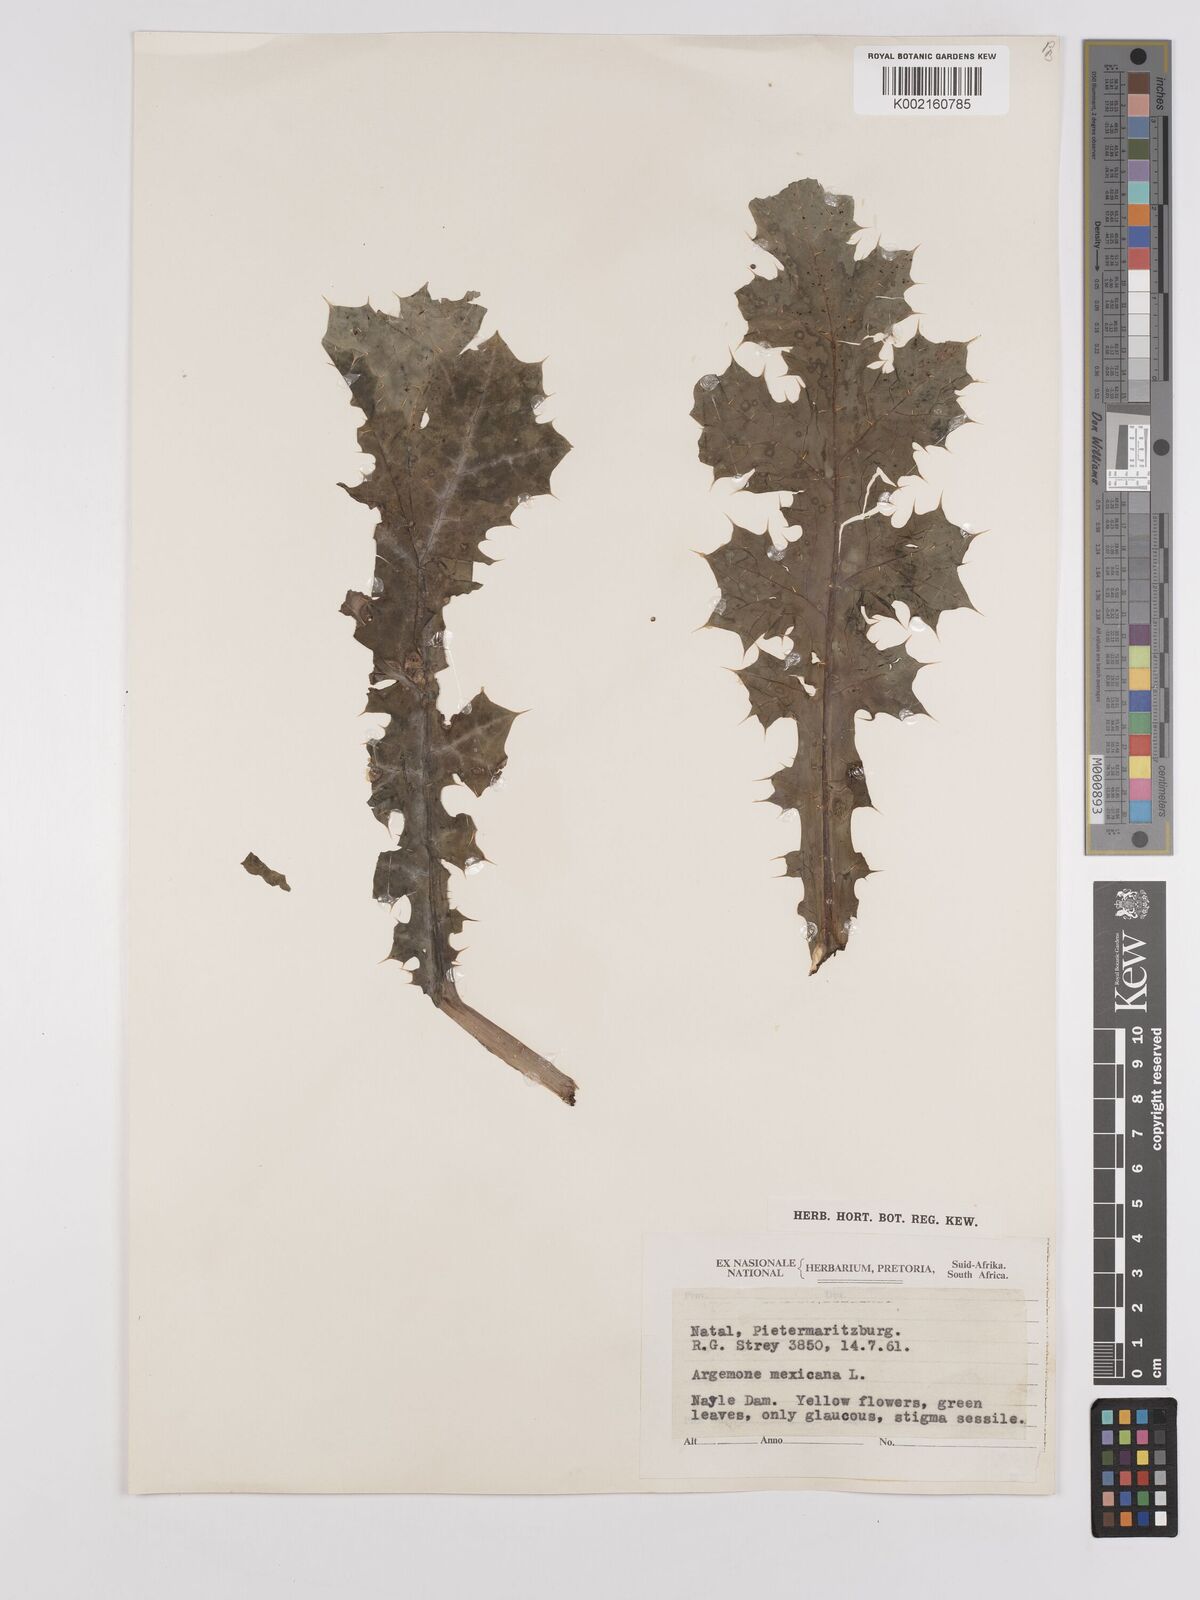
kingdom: Plantae
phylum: Tracheophyta
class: Magnoliopsida
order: Ranunculales
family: Papaveraceae
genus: Argemone
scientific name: Argemone ochroleuca
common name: White-flower mexican-poppy
